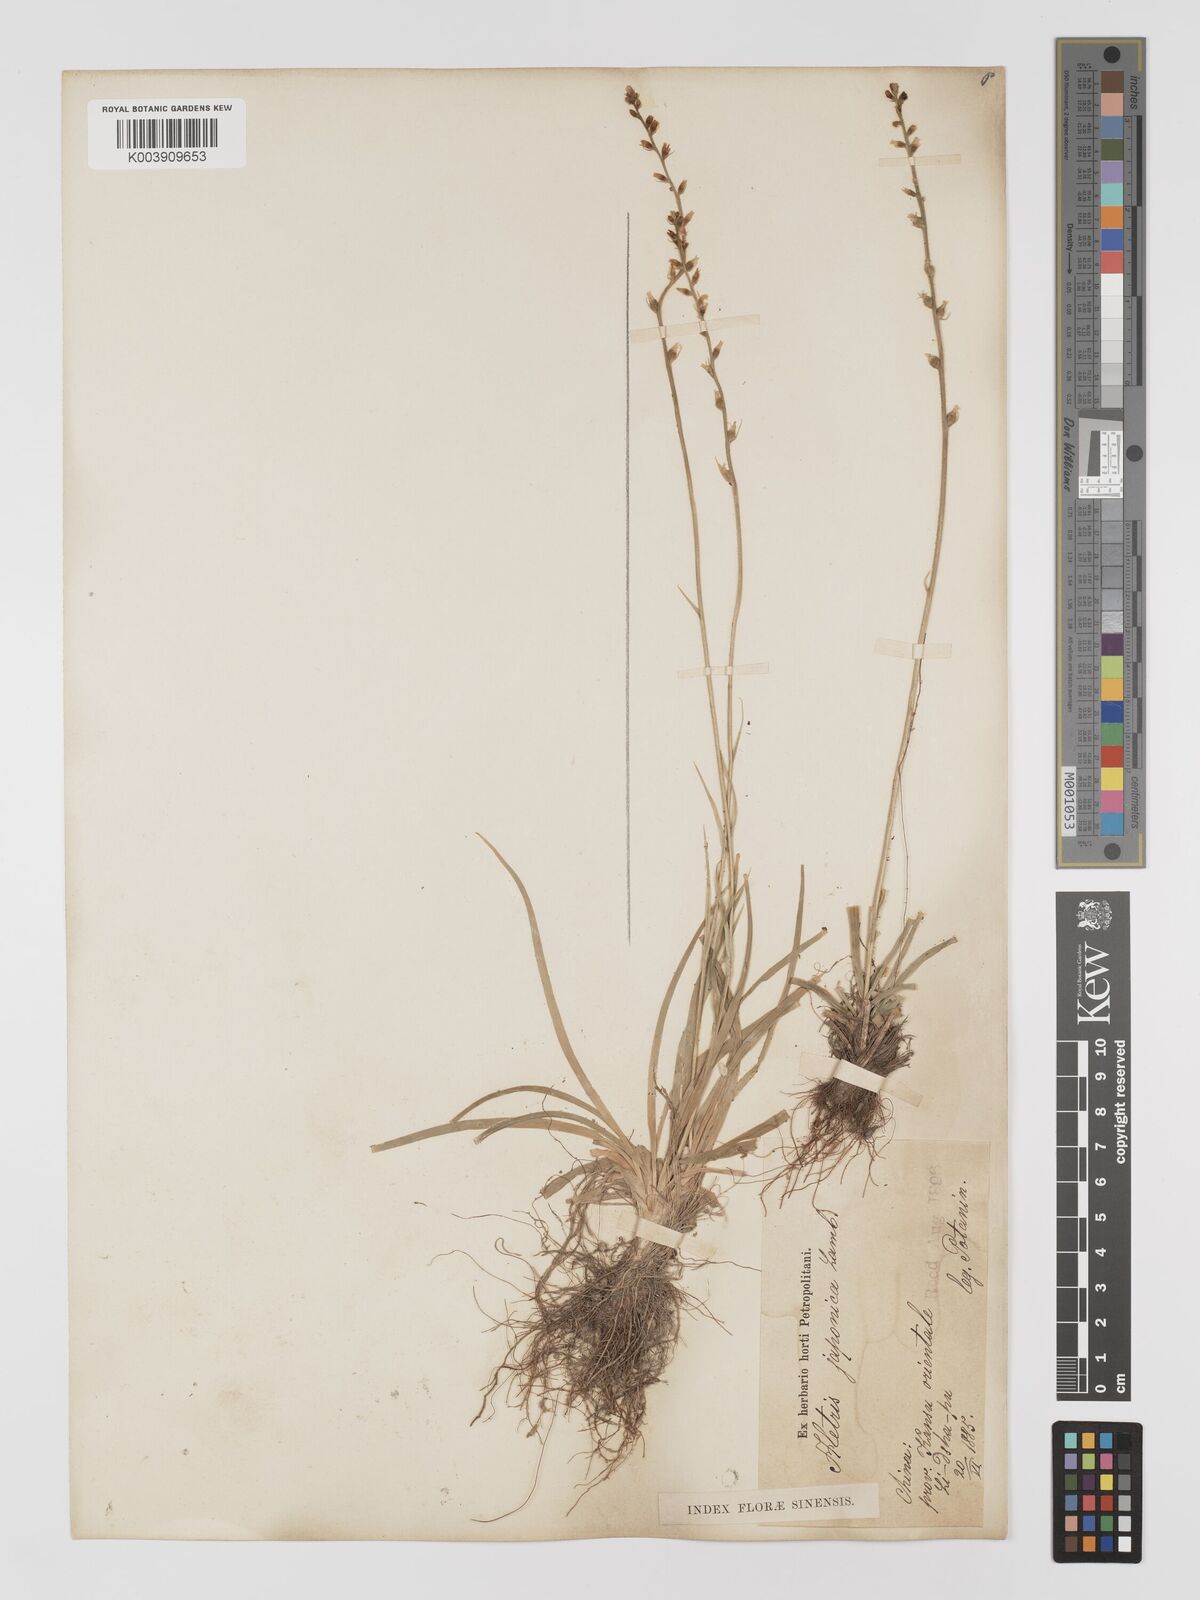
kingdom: Plantae
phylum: Tracheophyta
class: Liliopsida
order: Dioscoreales
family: Nartheciaceae
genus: Aletris
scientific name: Aletris spicata
